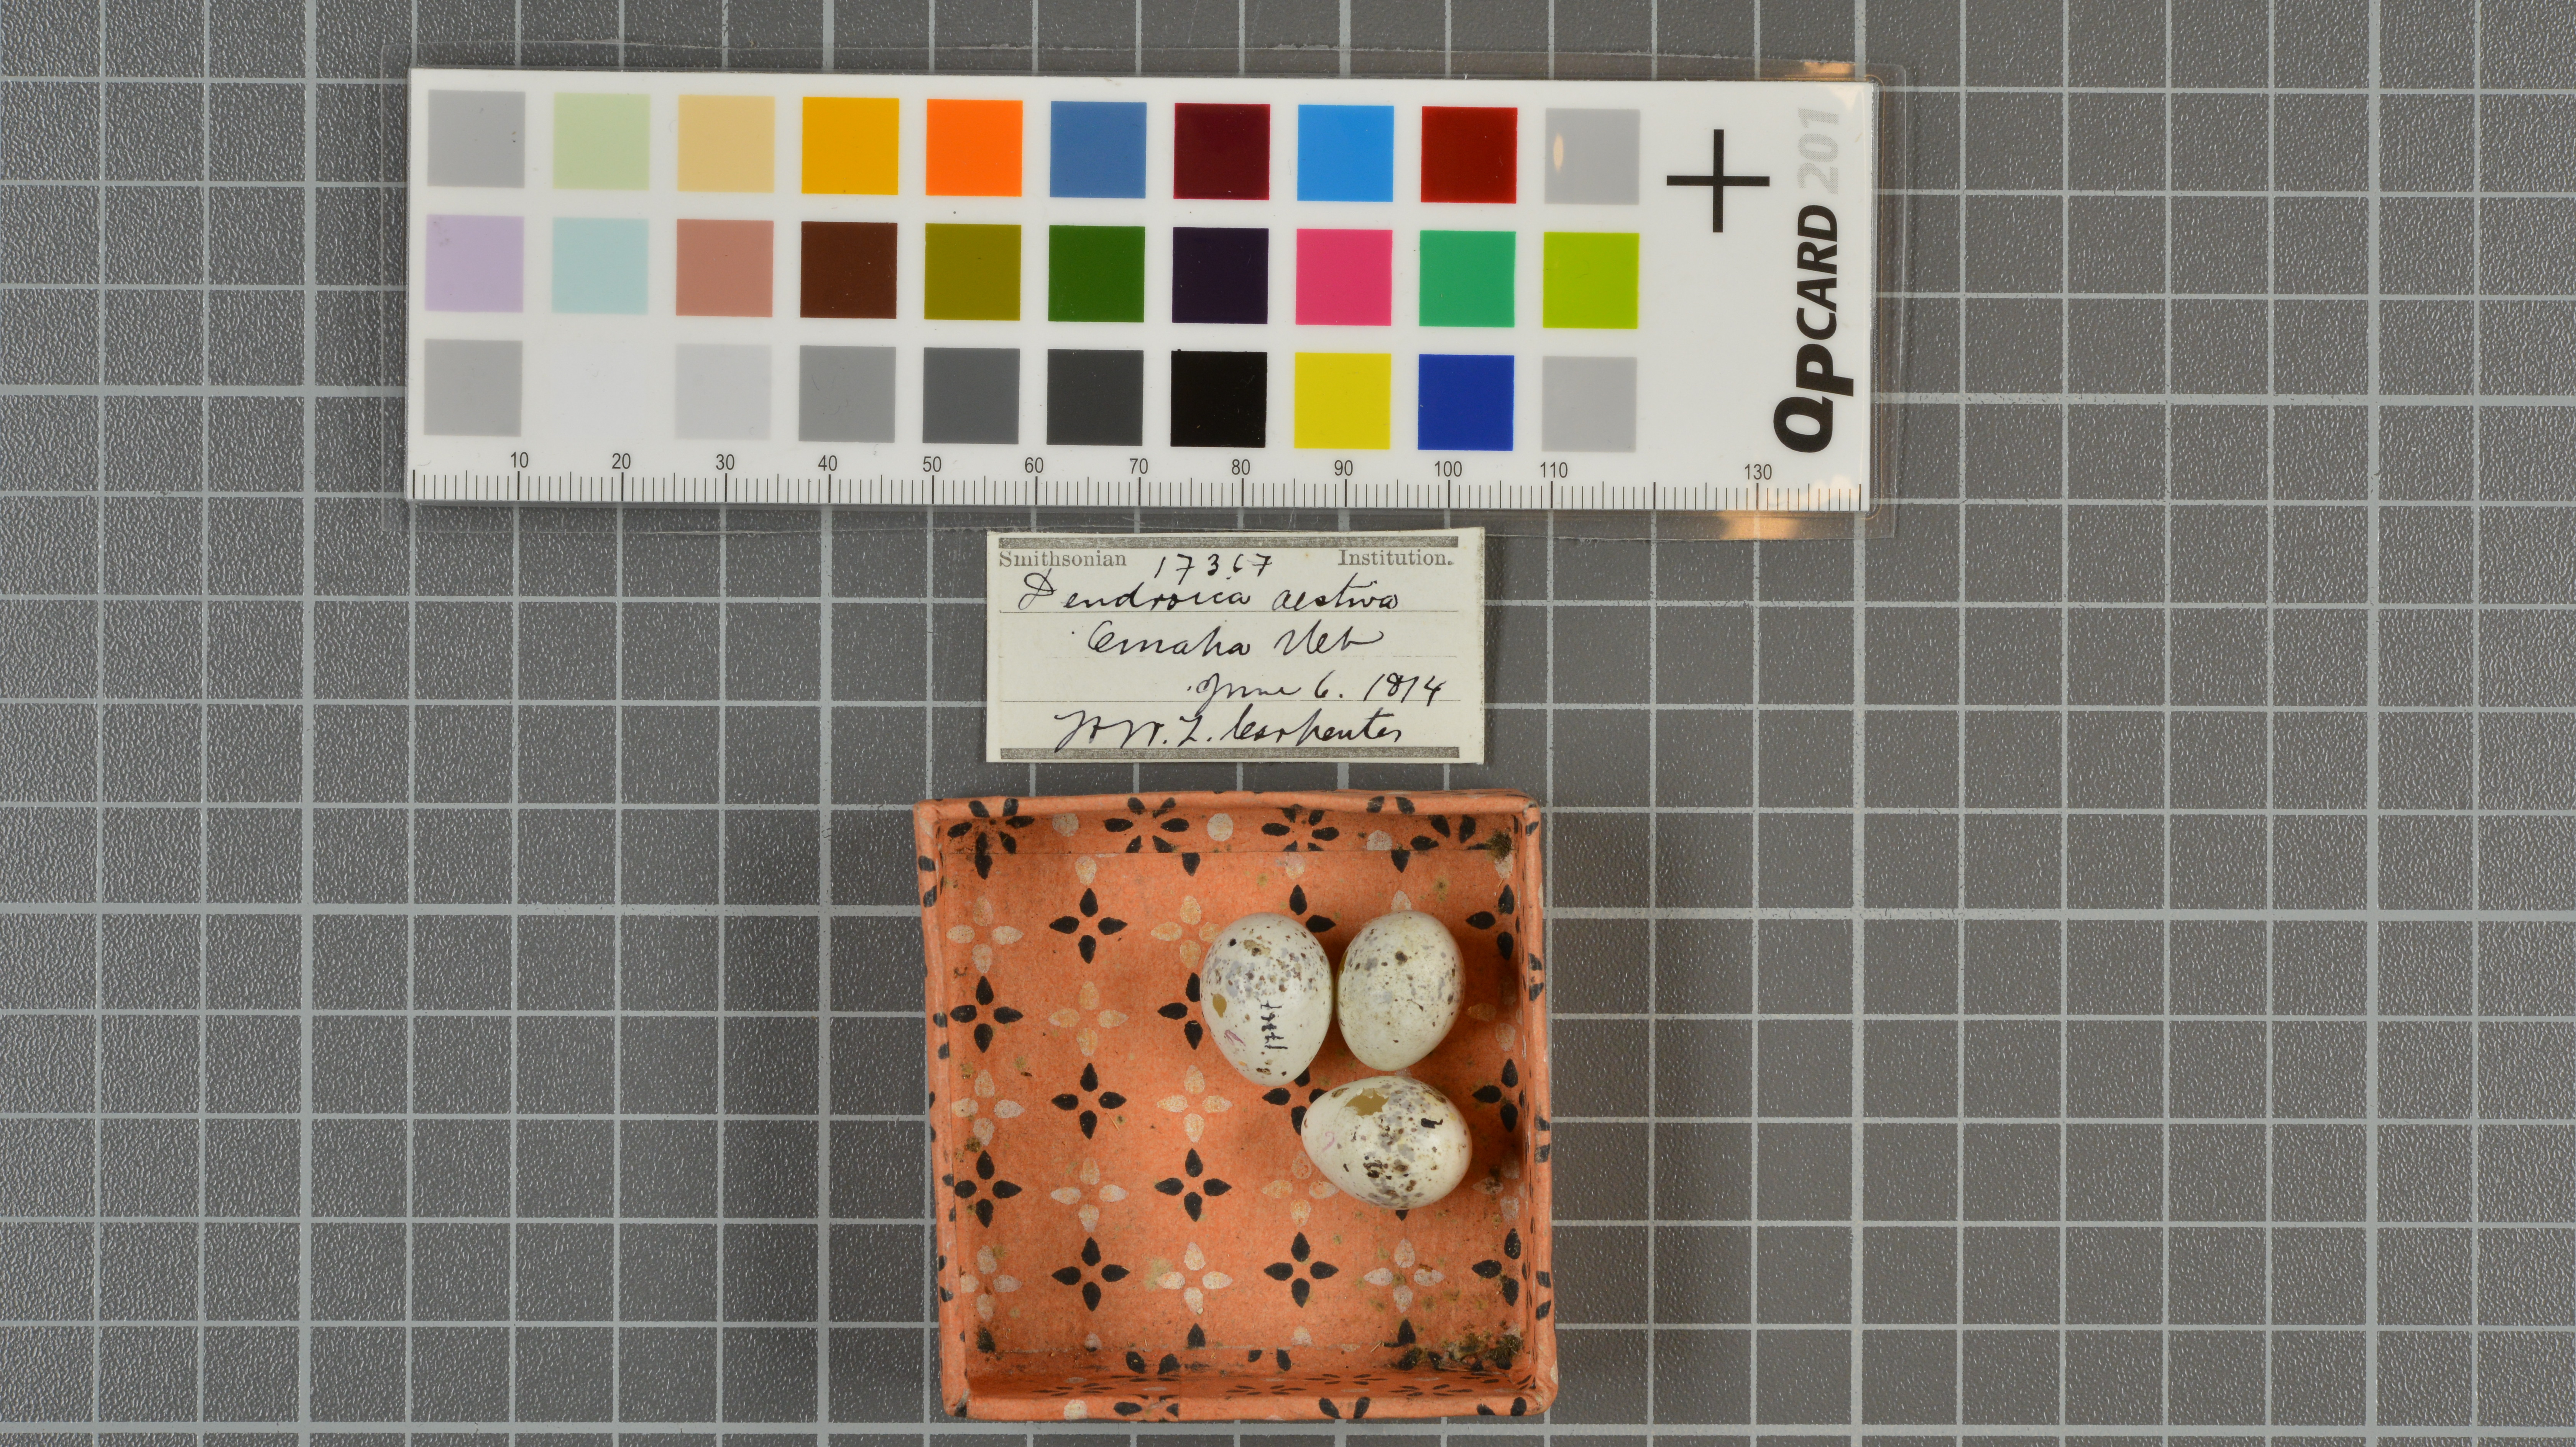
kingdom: Animalia
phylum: Chordata
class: Aves
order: Passeriformes
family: Parulidae
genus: Setophaga
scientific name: Setophaga aestiva
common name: American yellow warbler
